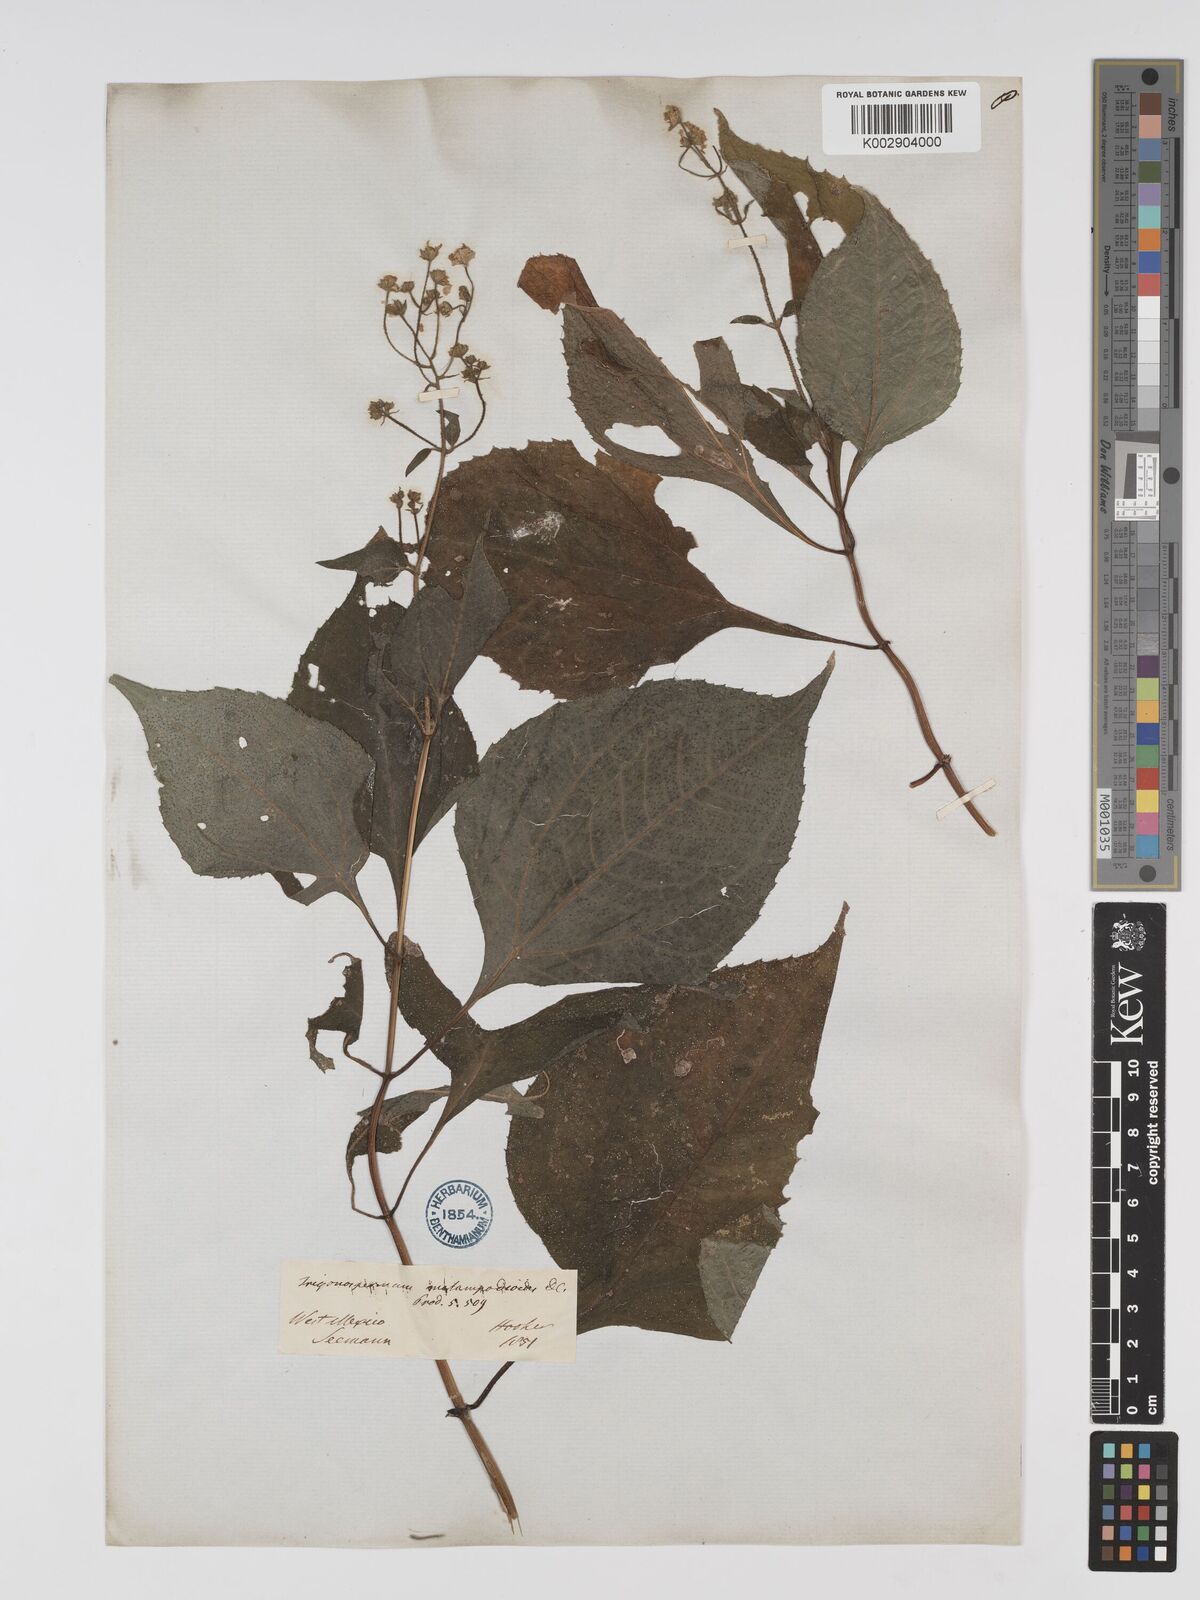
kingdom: Plantae
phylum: Tracheophyta
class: Magnoliopsida
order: Asterales
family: Asteraceae
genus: Trigonospermum
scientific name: Trigonospermum melampodioides
